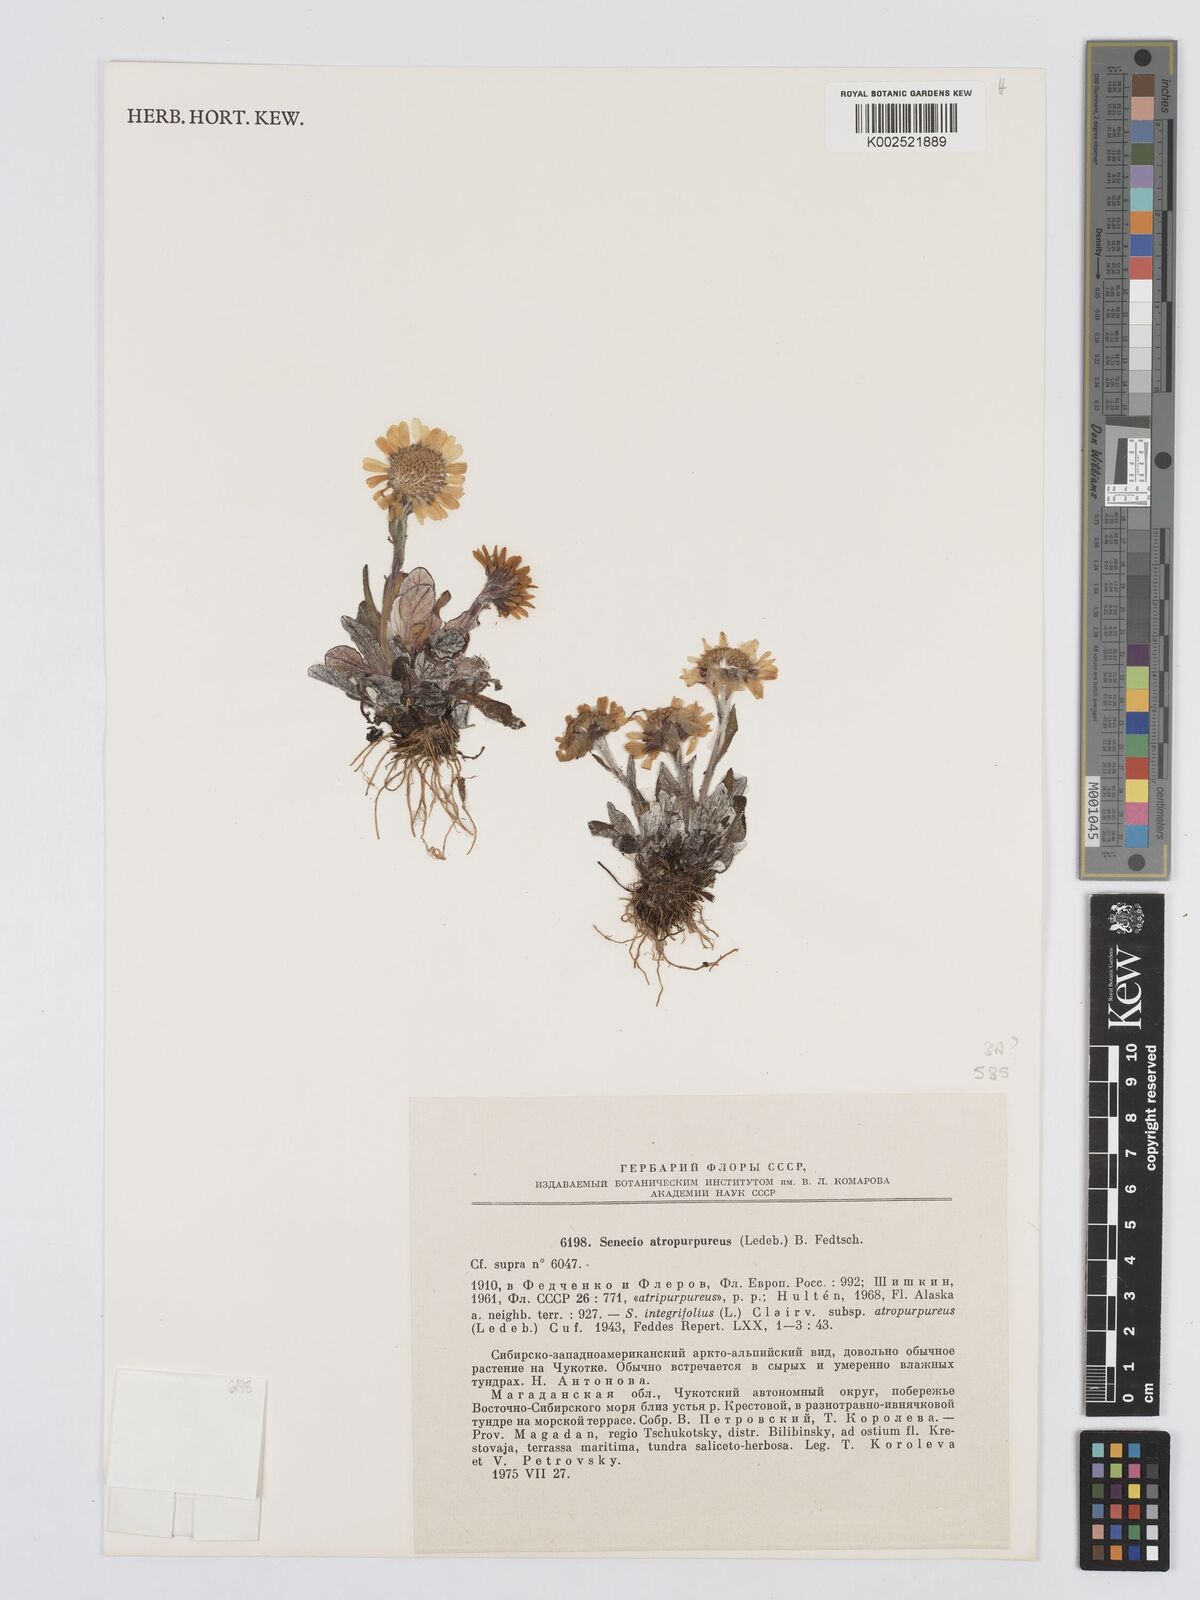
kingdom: Plantae
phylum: Tracheophyta
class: Magnoliopsida
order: Asterales
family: Asteraceae
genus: Tephroseris
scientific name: Tephroseris integrifolia
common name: Field fleawort
